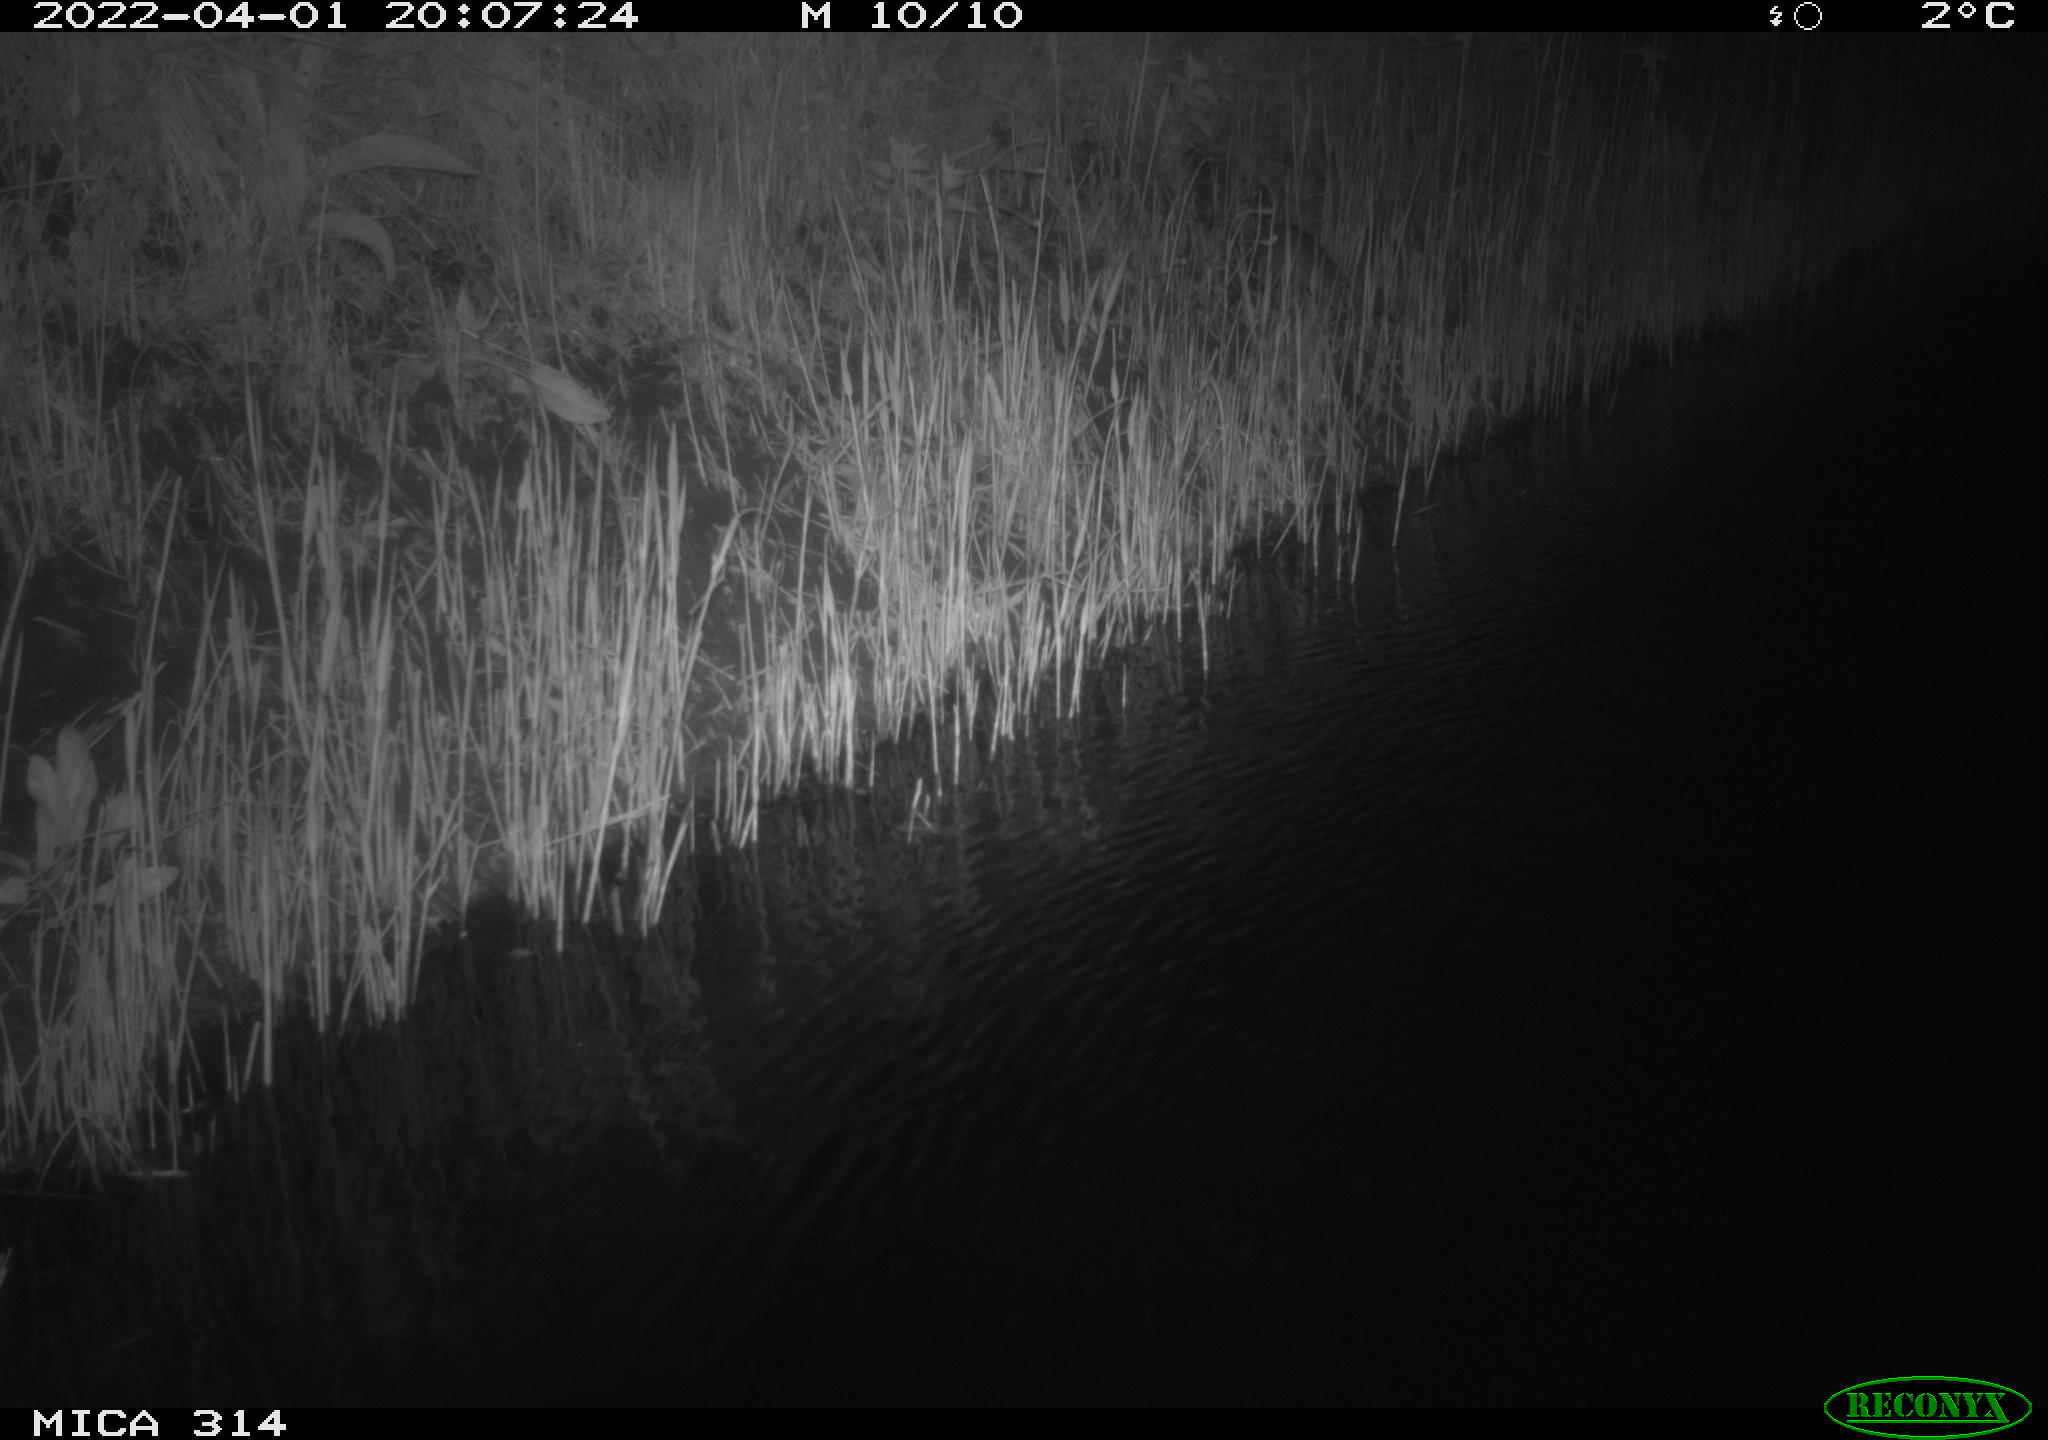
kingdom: Animalia
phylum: Chordata
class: Mammalia
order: Rodentia
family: Muridae
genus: Rattus
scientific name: Rattus norvegicus
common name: Brown rat
